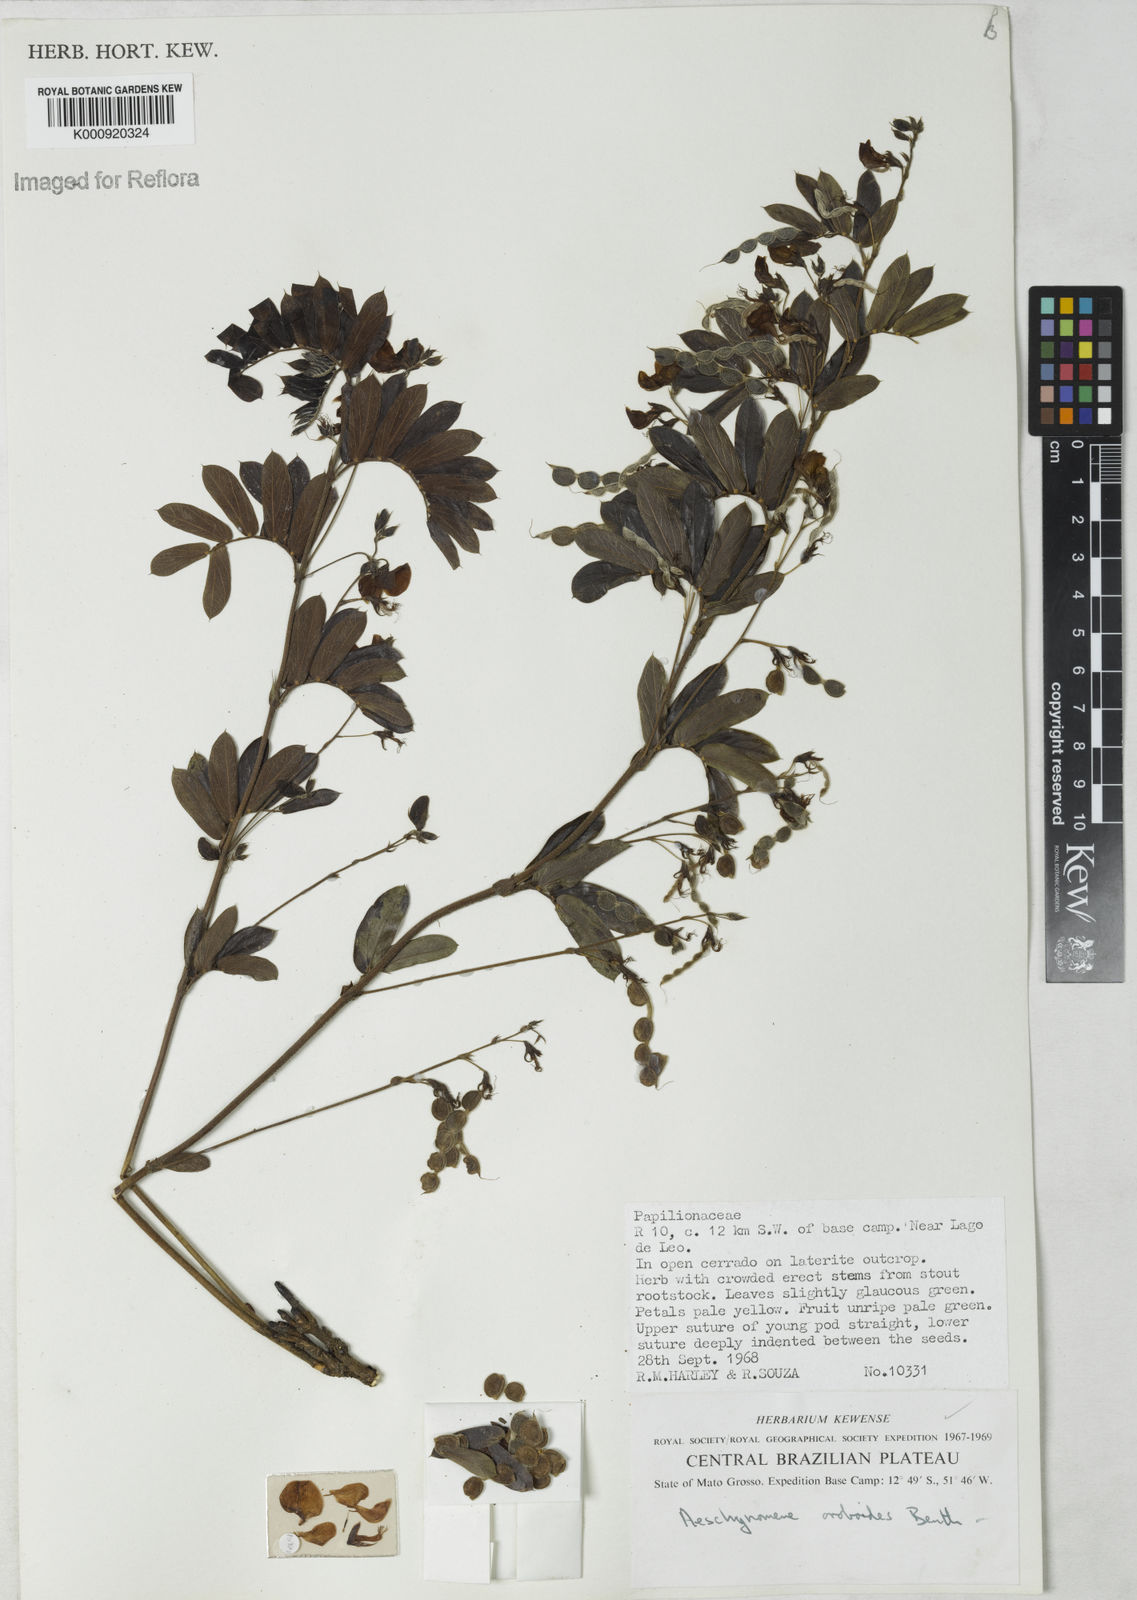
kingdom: Plantae
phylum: Tracheophyta
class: Magnoliopsida
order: Fabales
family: Fabaceae
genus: Ctenodon
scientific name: Ctenodon oroboides
